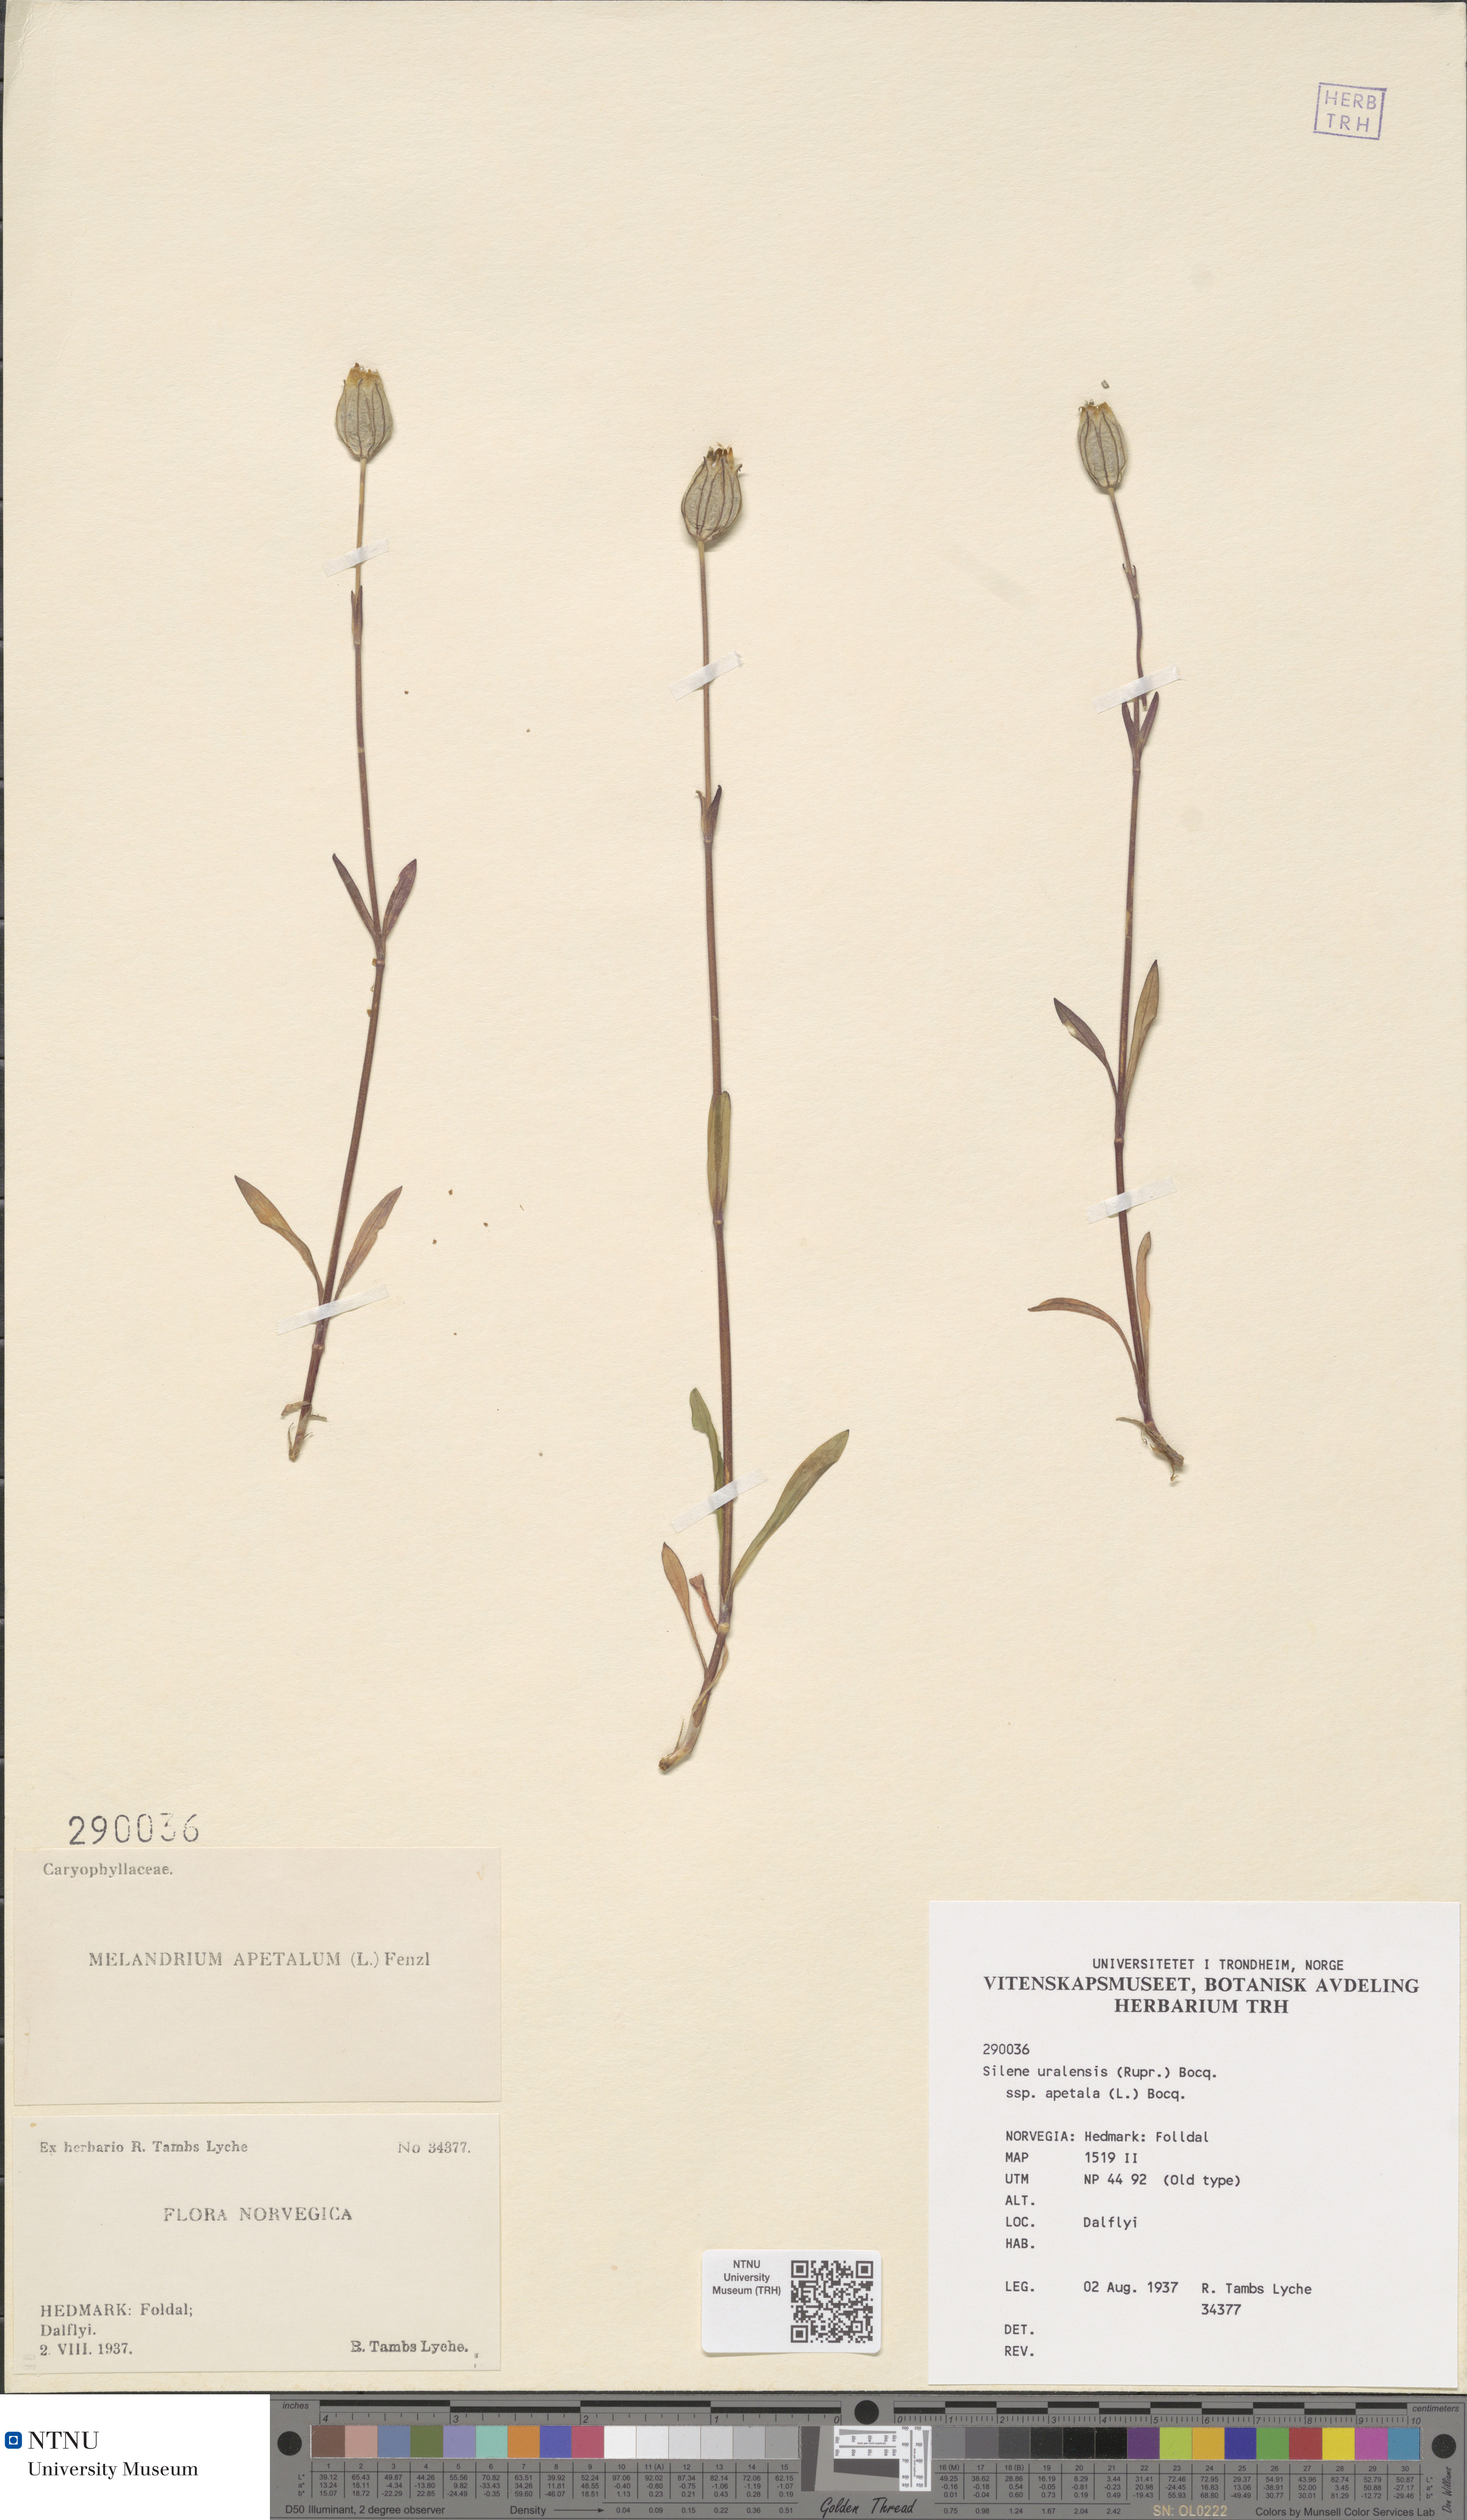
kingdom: Plantae
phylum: Tracheophyta
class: Magnoliopsida
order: Caryophyllales
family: Caryophyllaceae
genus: Silene
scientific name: Silene wahlbergella
